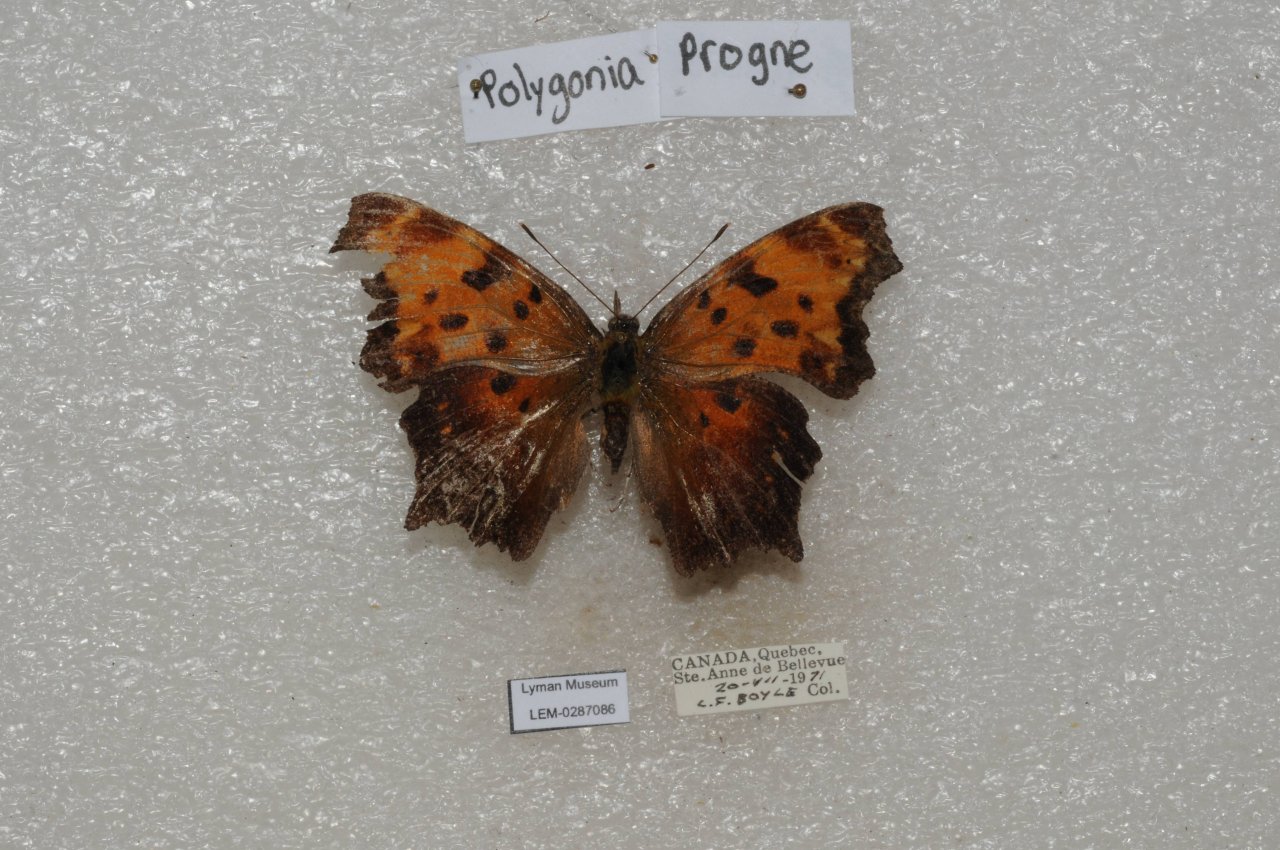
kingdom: Animalia
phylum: Arthropoda
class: Insecta
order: Lepidoptera
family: Nymphalidae
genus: Polygonia
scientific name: Polygonia progne
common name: Gray Comma
